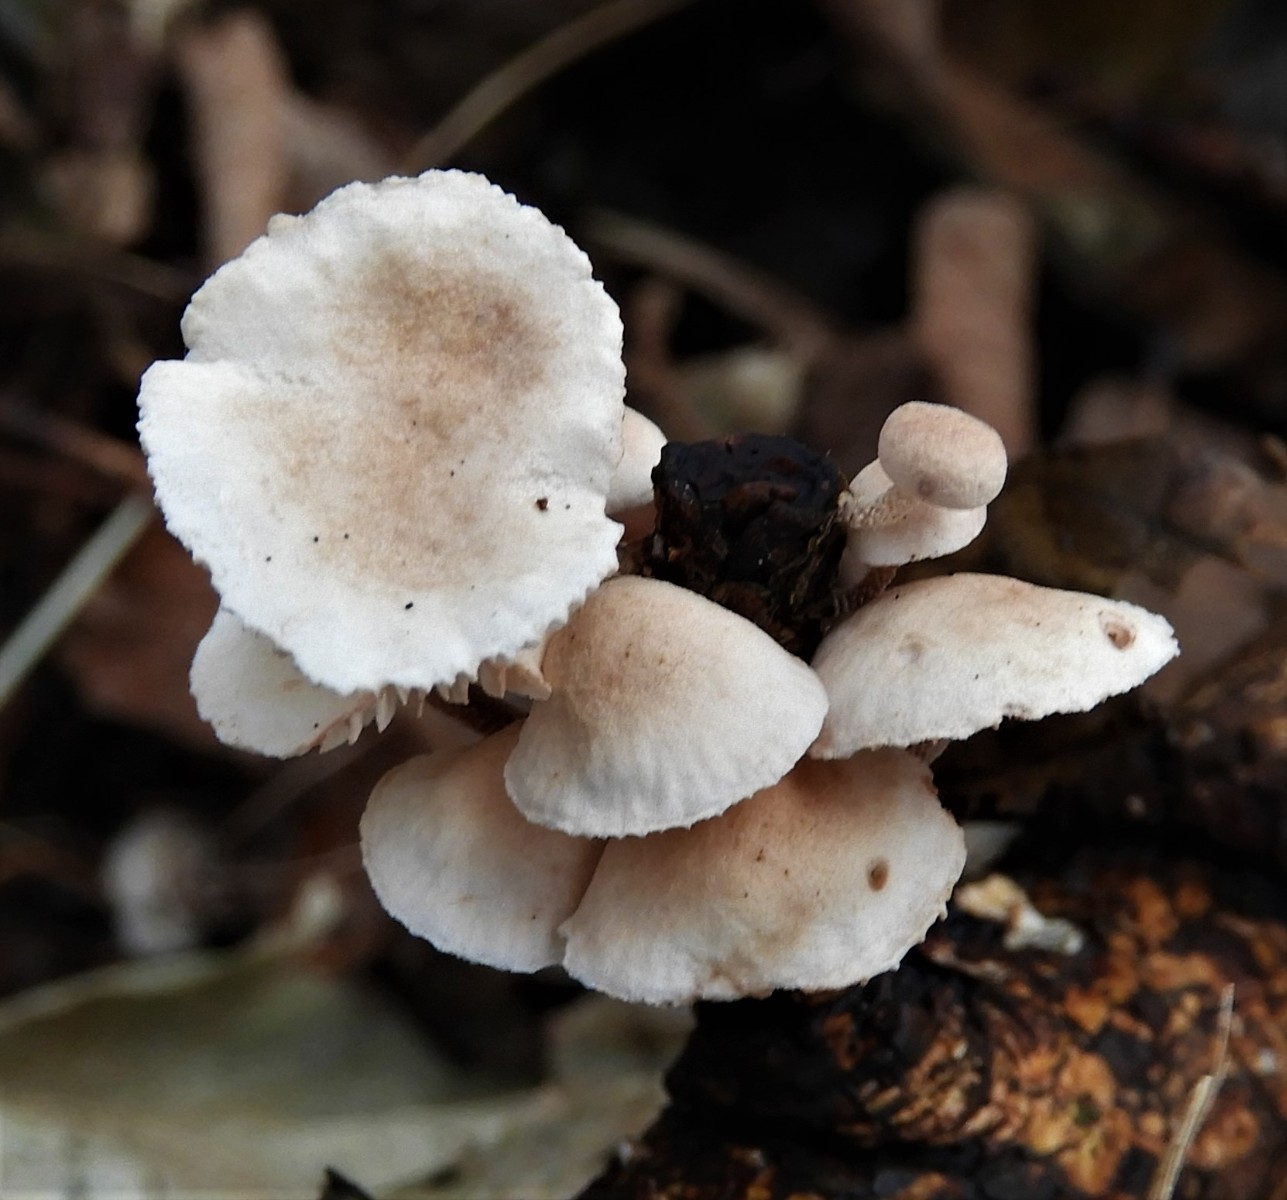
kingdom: Fungi
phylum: Basidiomycota
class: Agaricomycetes
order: Agaricales
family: Omphalotaceae
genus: Collybiopsis
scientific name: Collybiopsis ramealis
